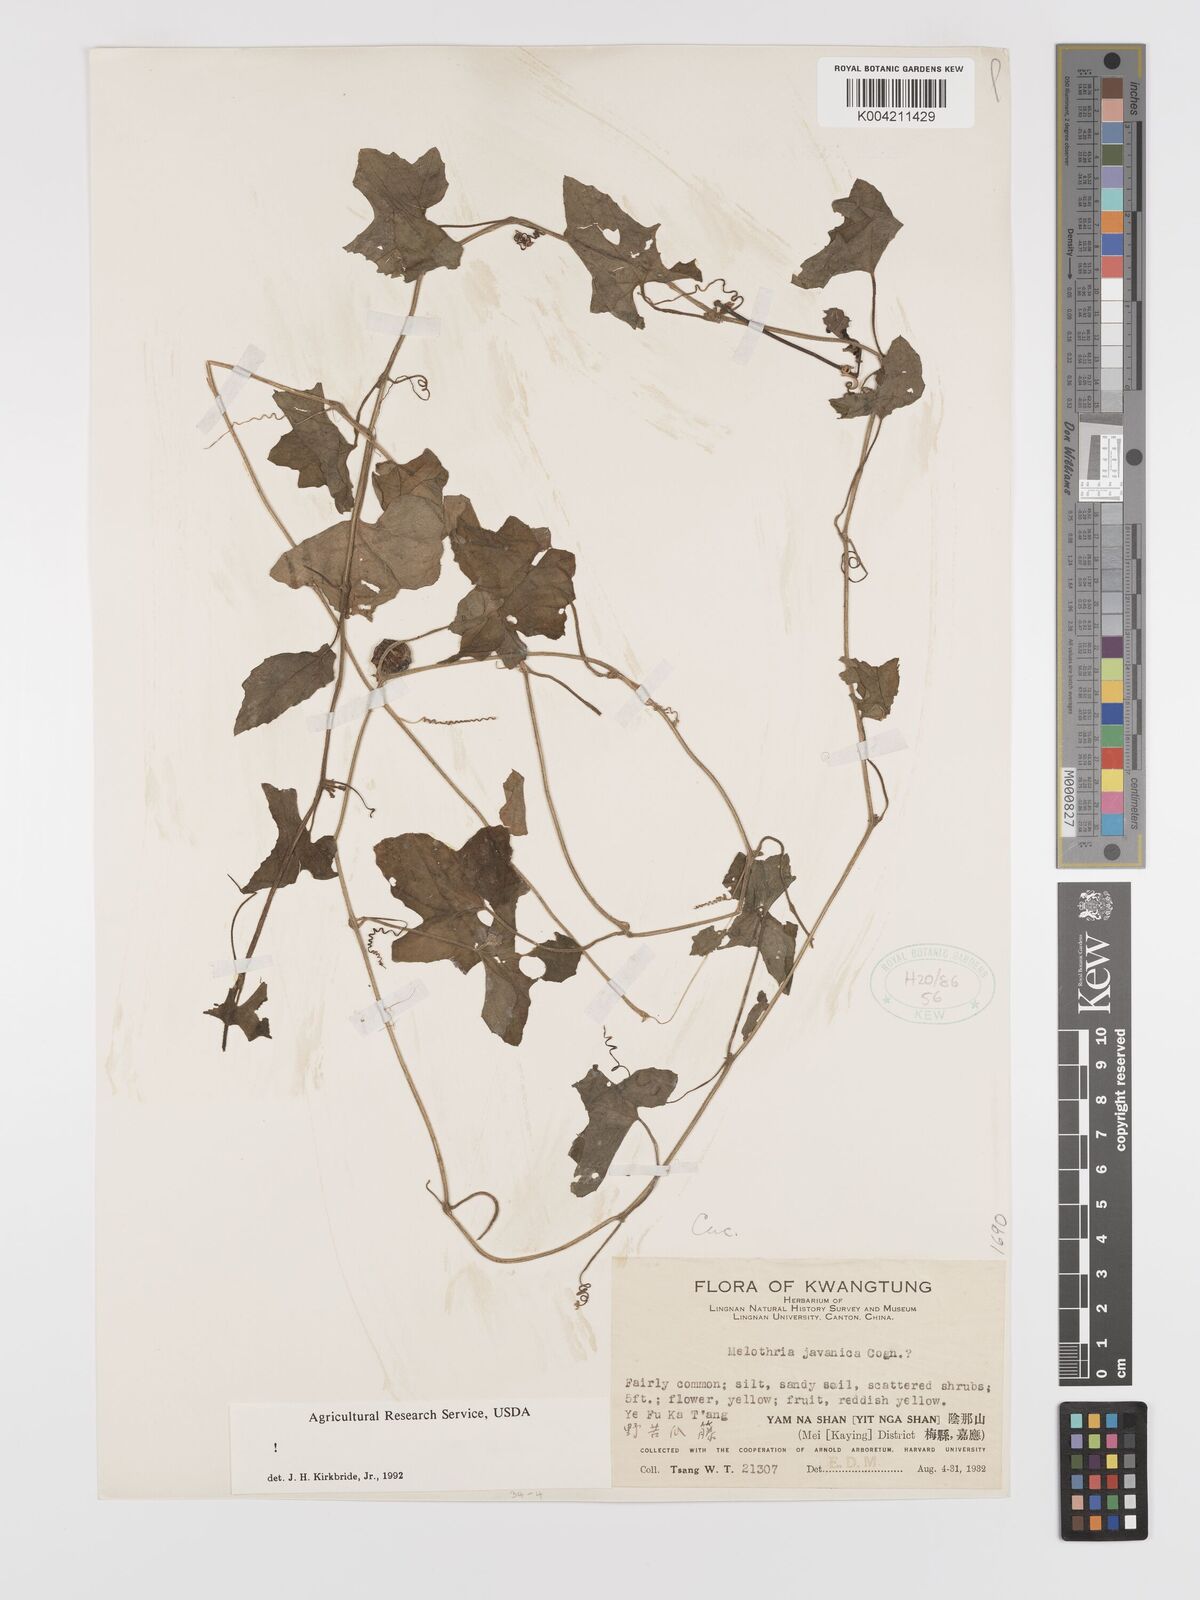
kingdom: Plantae
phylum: Tracheophyta
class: Magnoliopsida
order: Cucurbitales
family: Cucurbitaceae
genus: Cucumis
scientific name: Cucumis javanicus
